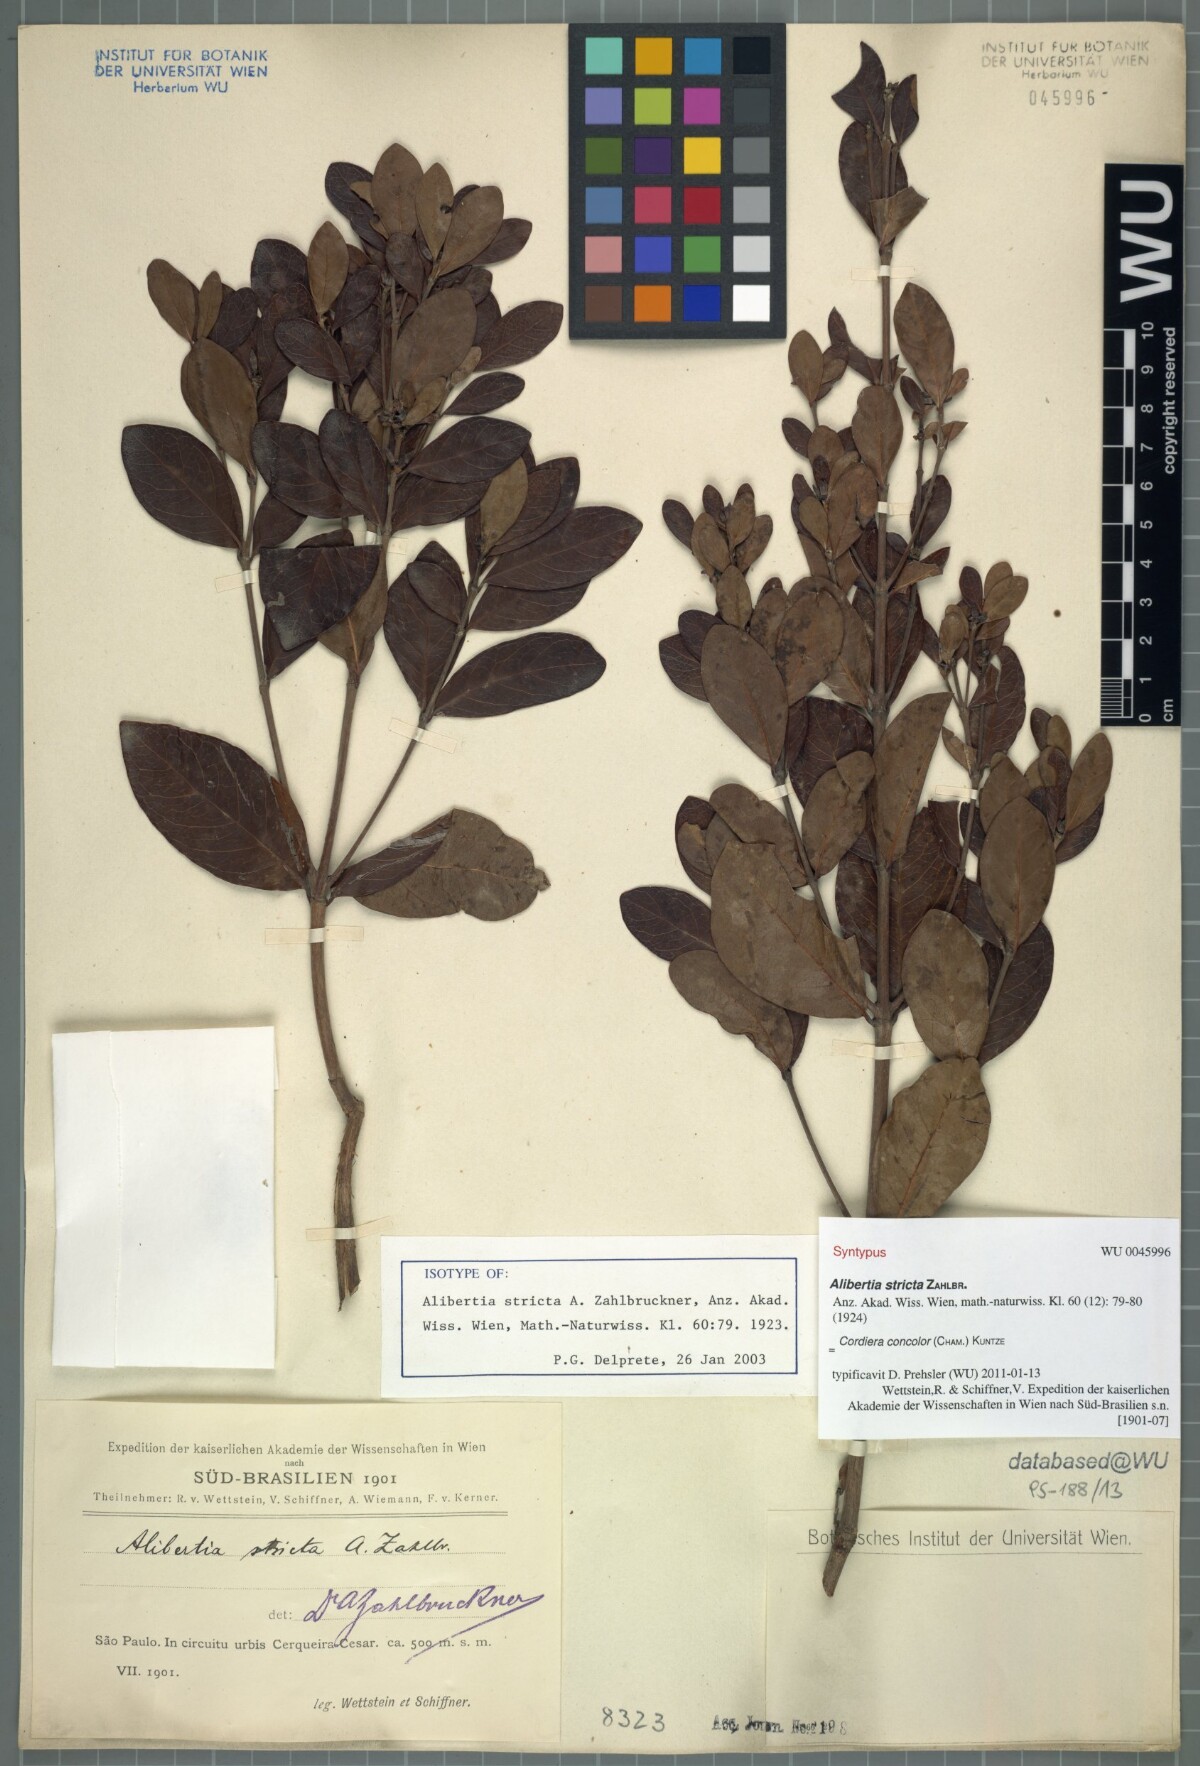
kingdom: Plantae
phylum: Tracheophyta
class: Magnoliopsida
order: Gentianales
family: Rubiaceae
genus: Cordiera
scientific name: Cordiera concolor
